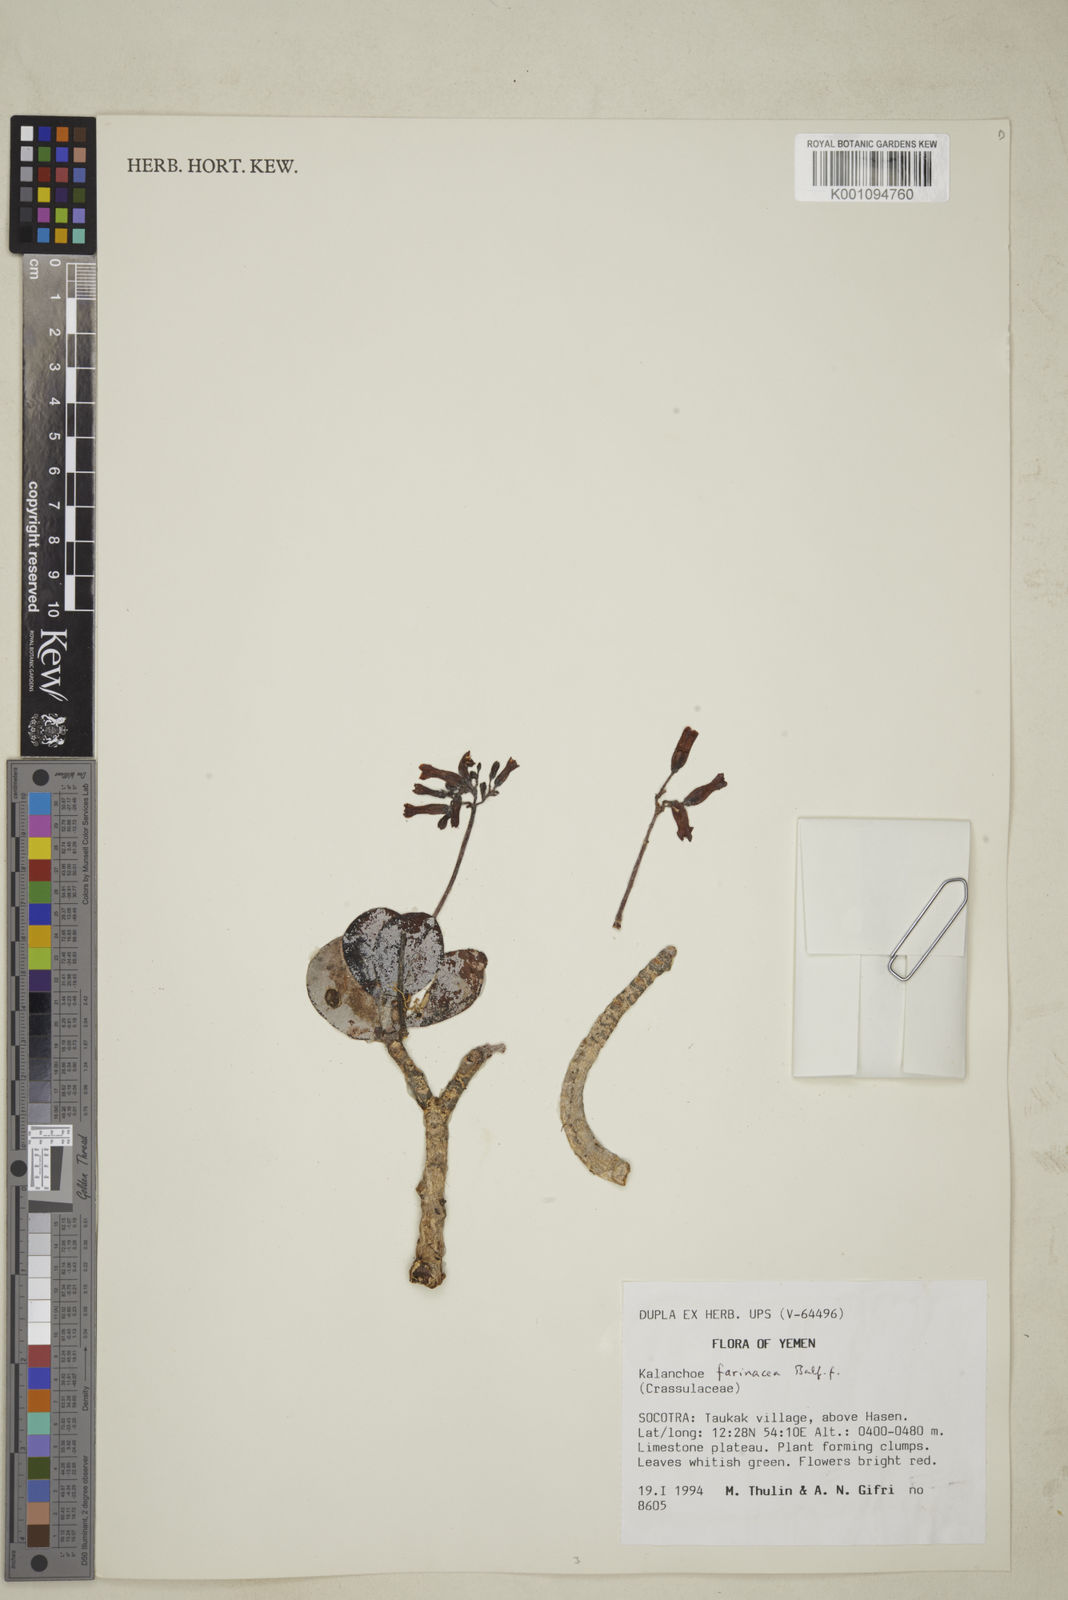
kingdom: Plantae
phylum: Tracheophyta
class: Magnoliopsida
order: Saxifragales
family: Crassulaceae
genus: Kalanchoe
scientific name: Kalanchoe farinacea
